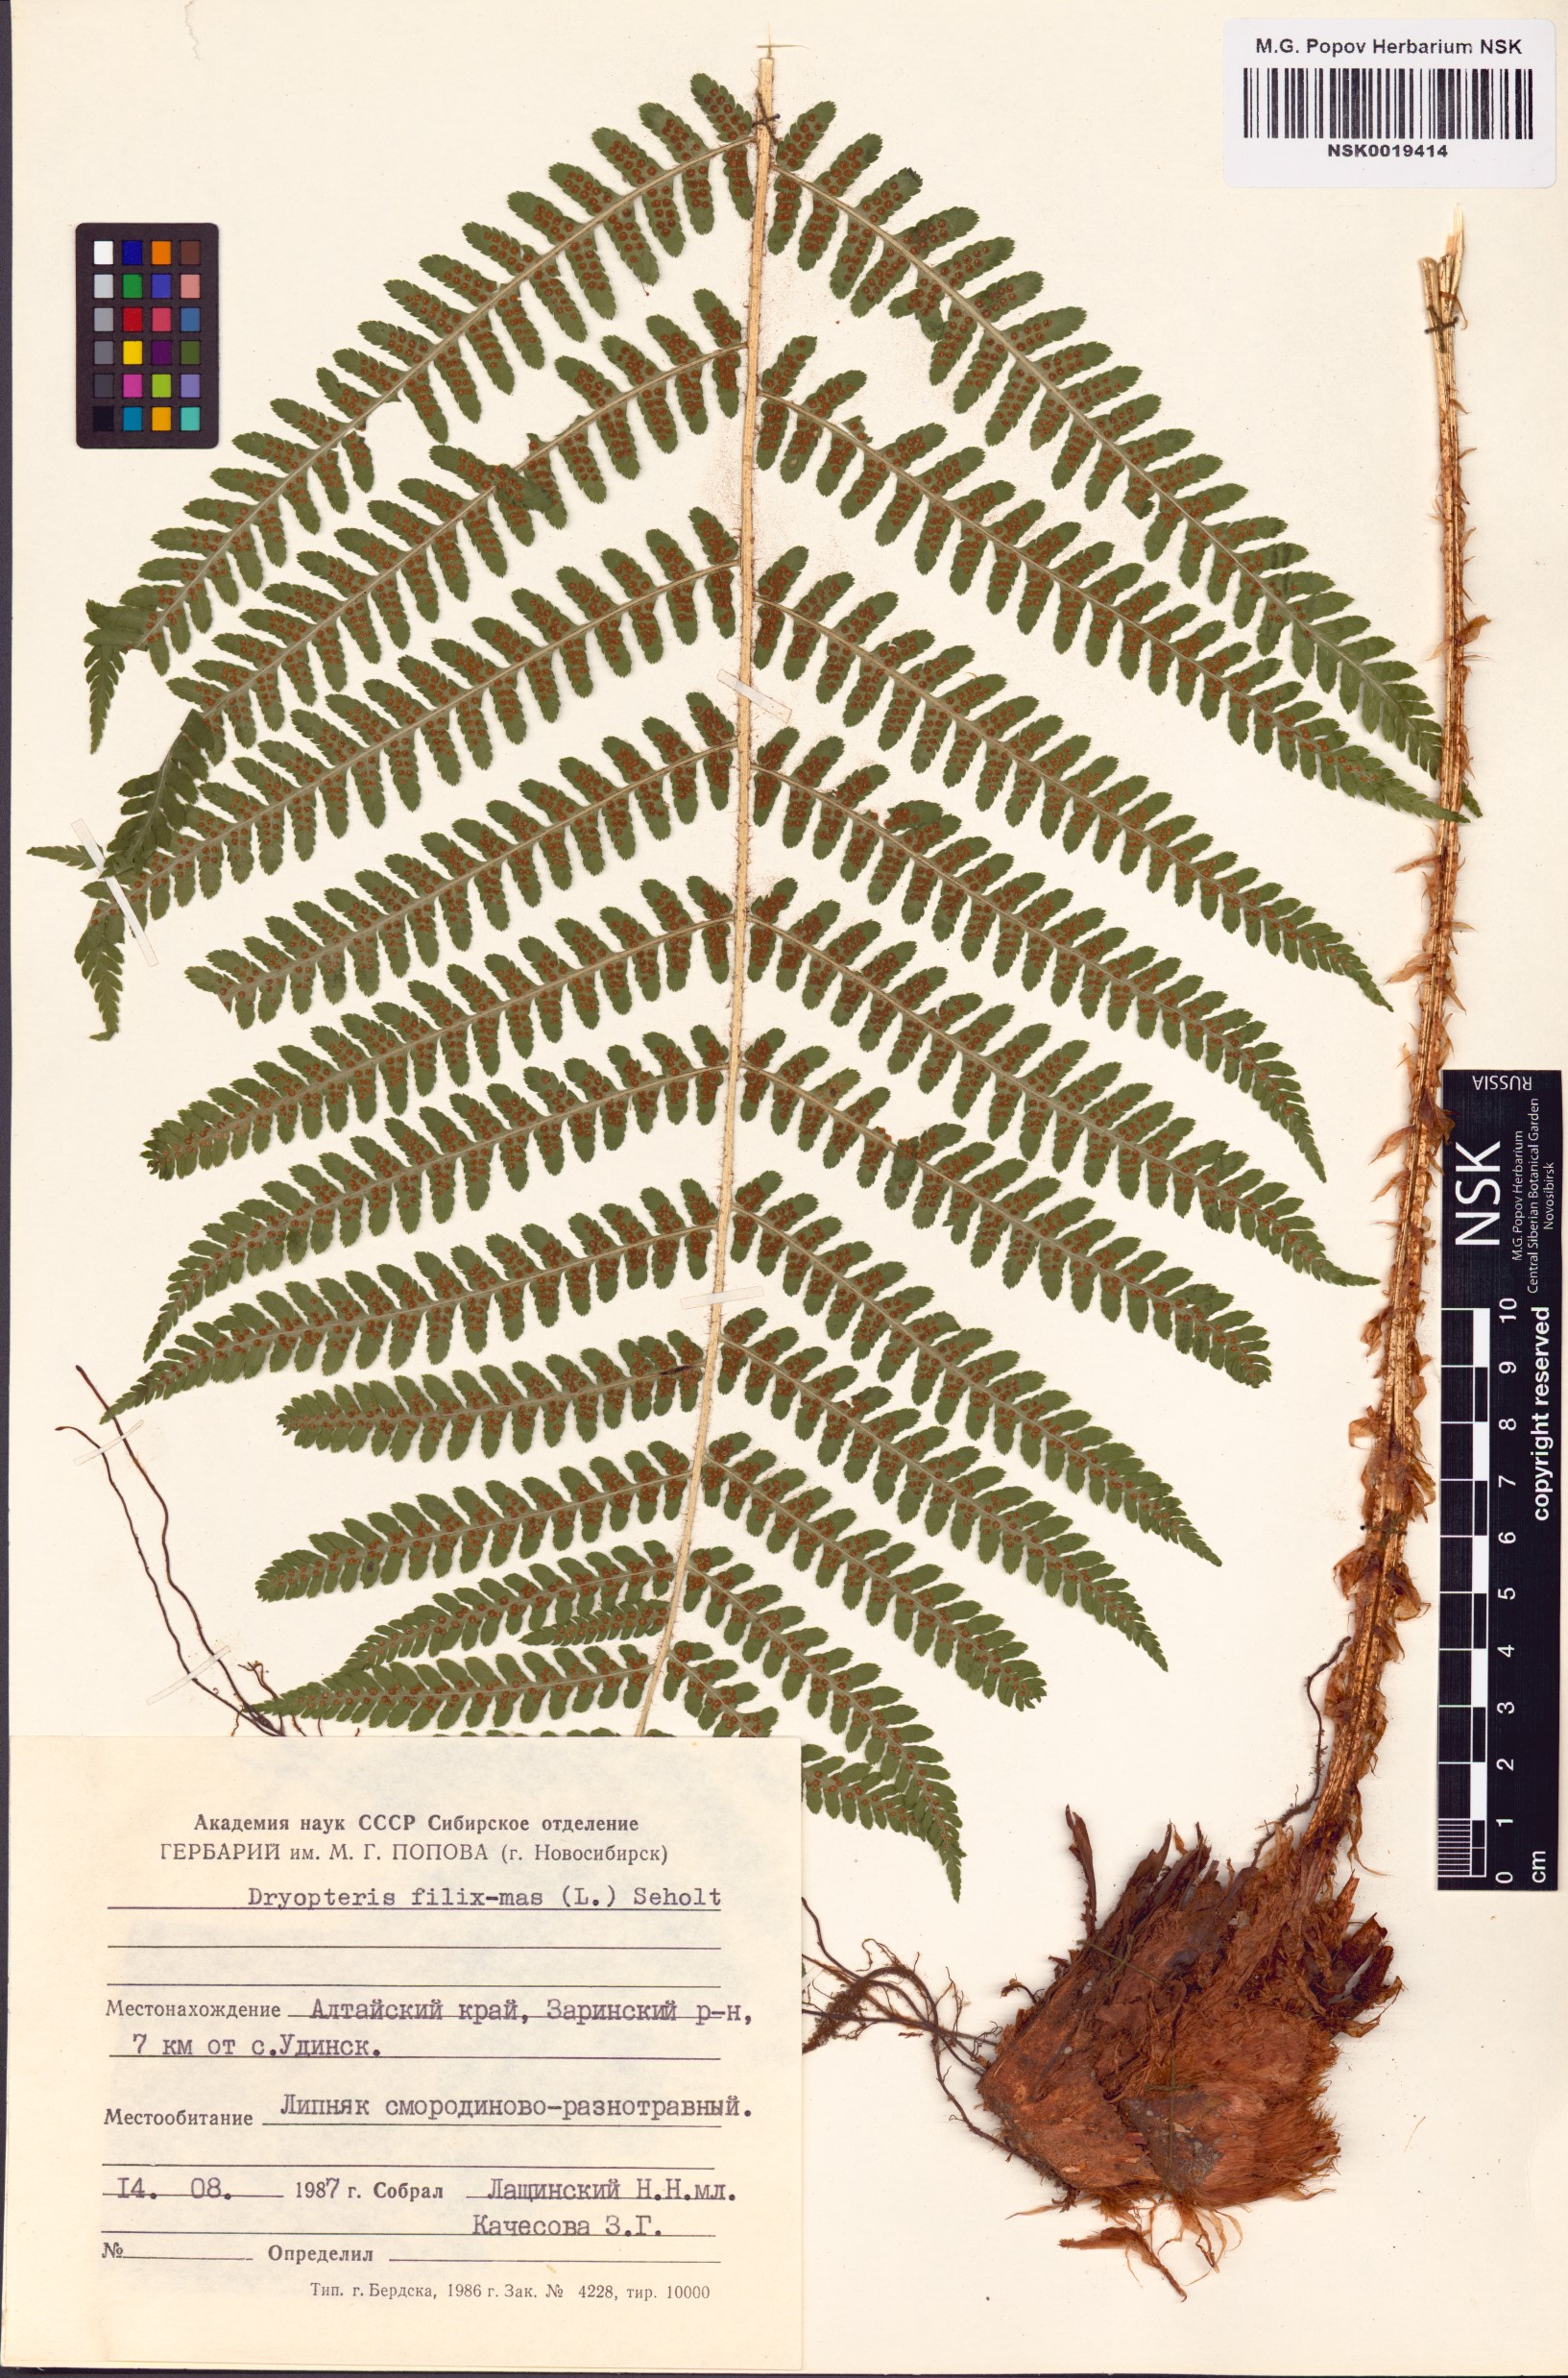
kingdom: Plantae
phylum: Tracheophyta
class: Polypodiopsida
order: Polypodiales
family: Dryopteridaceae
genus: Dryopteris
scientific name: Dryopteris filix-mas
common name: Male fern
